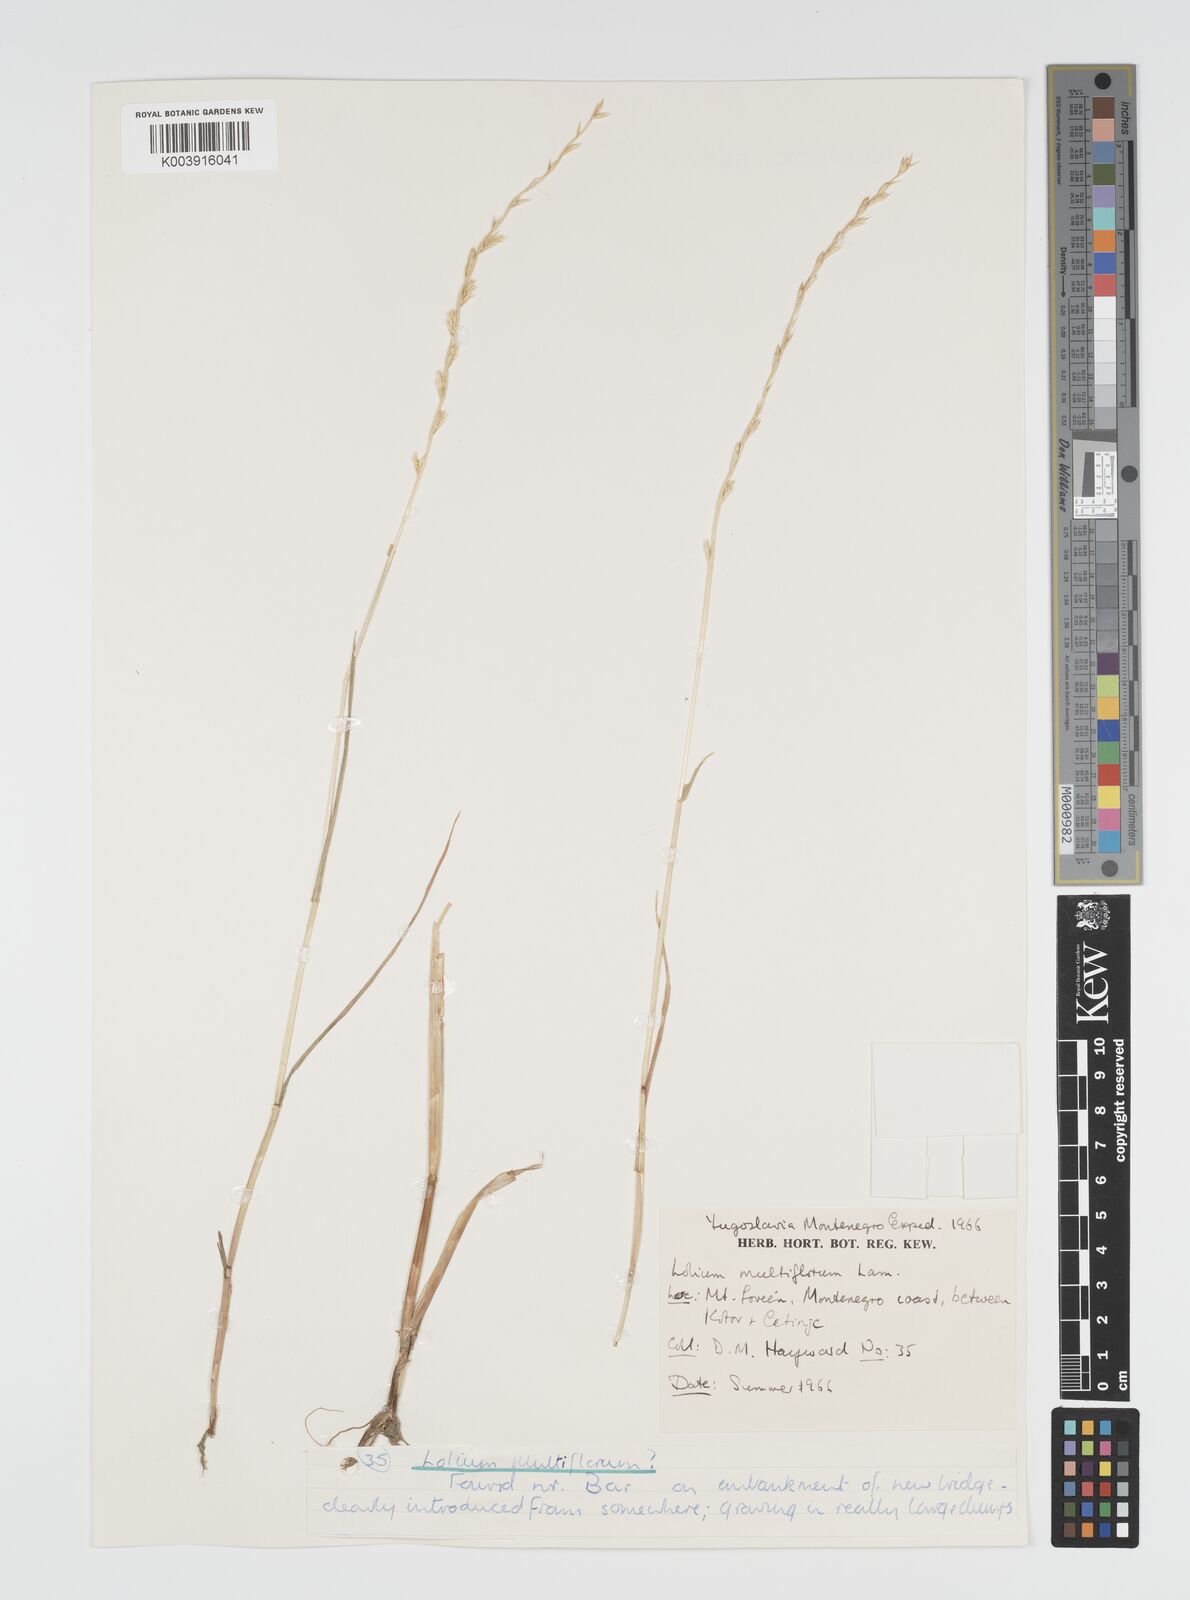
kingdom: Plantae
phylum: Tracheophyta
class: Liliopsida
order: Poales
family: Poaceae
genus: Lolium
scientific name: Lolium multiflorum
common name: Annual ryegrass
